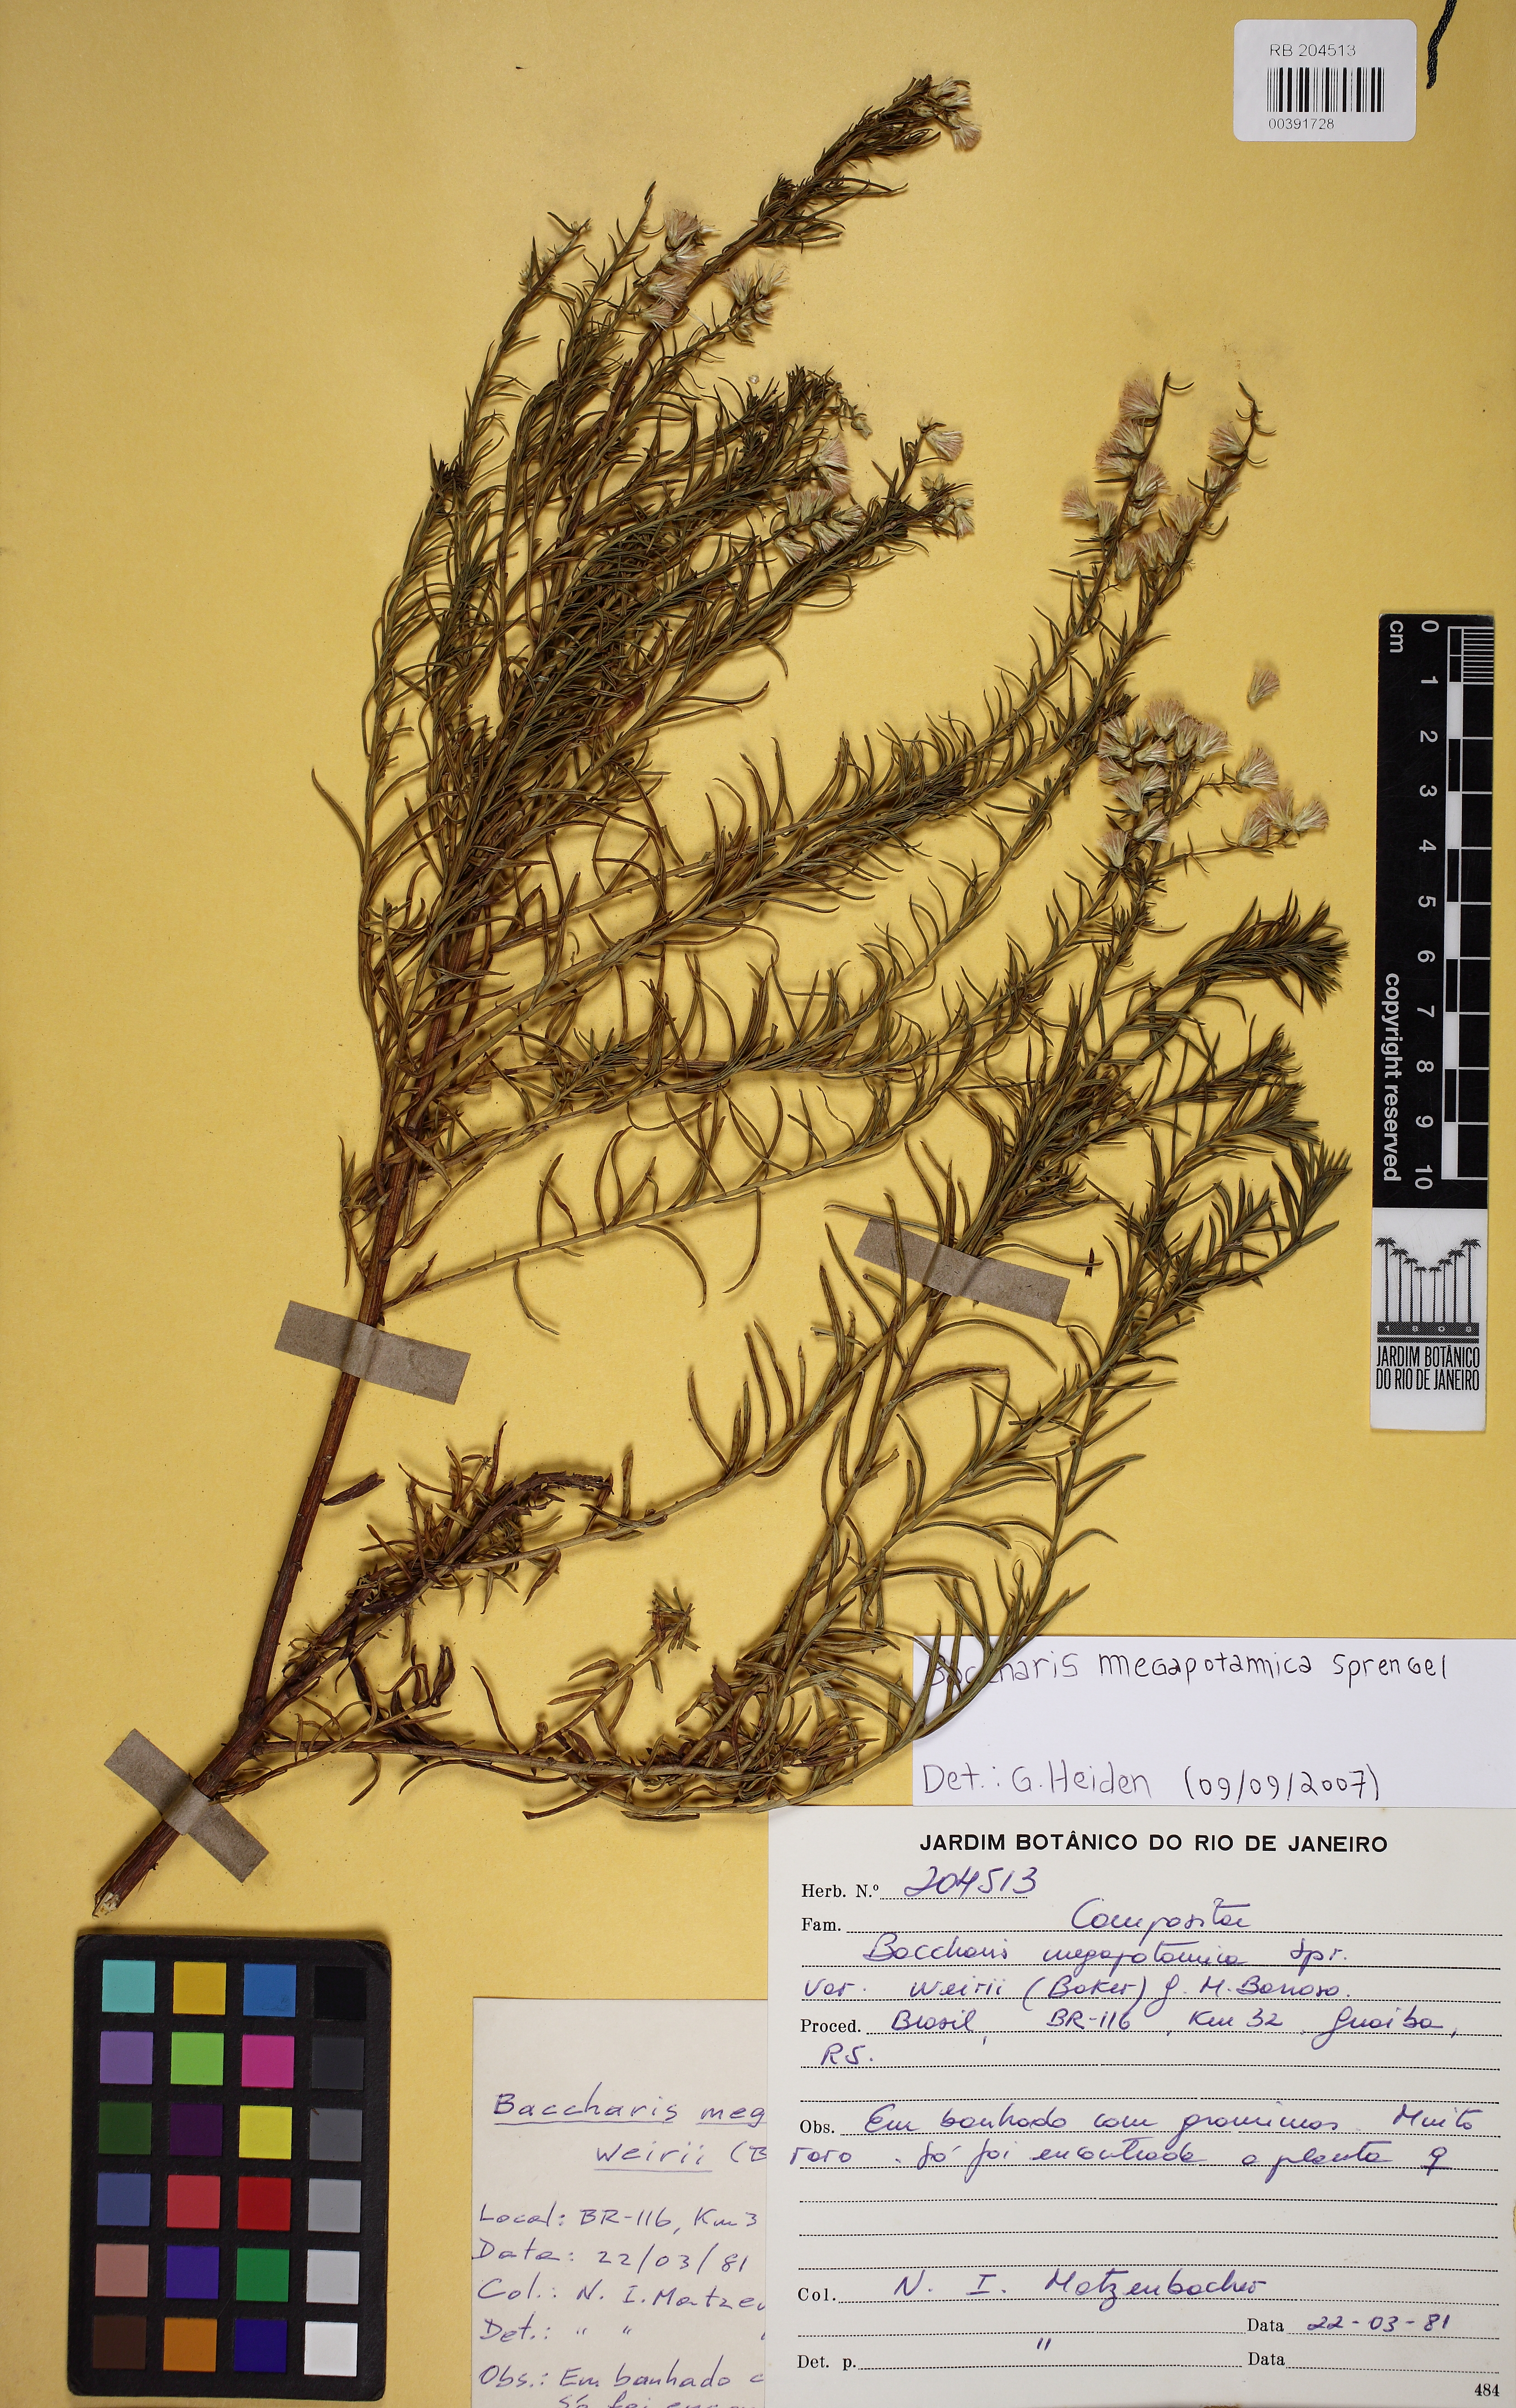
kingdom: Plantae
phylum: Tracheophyta
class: Magnoliopsida
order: Asterales
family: Asteraceae
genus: Baccharis
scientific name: Baccharis megapotamica
